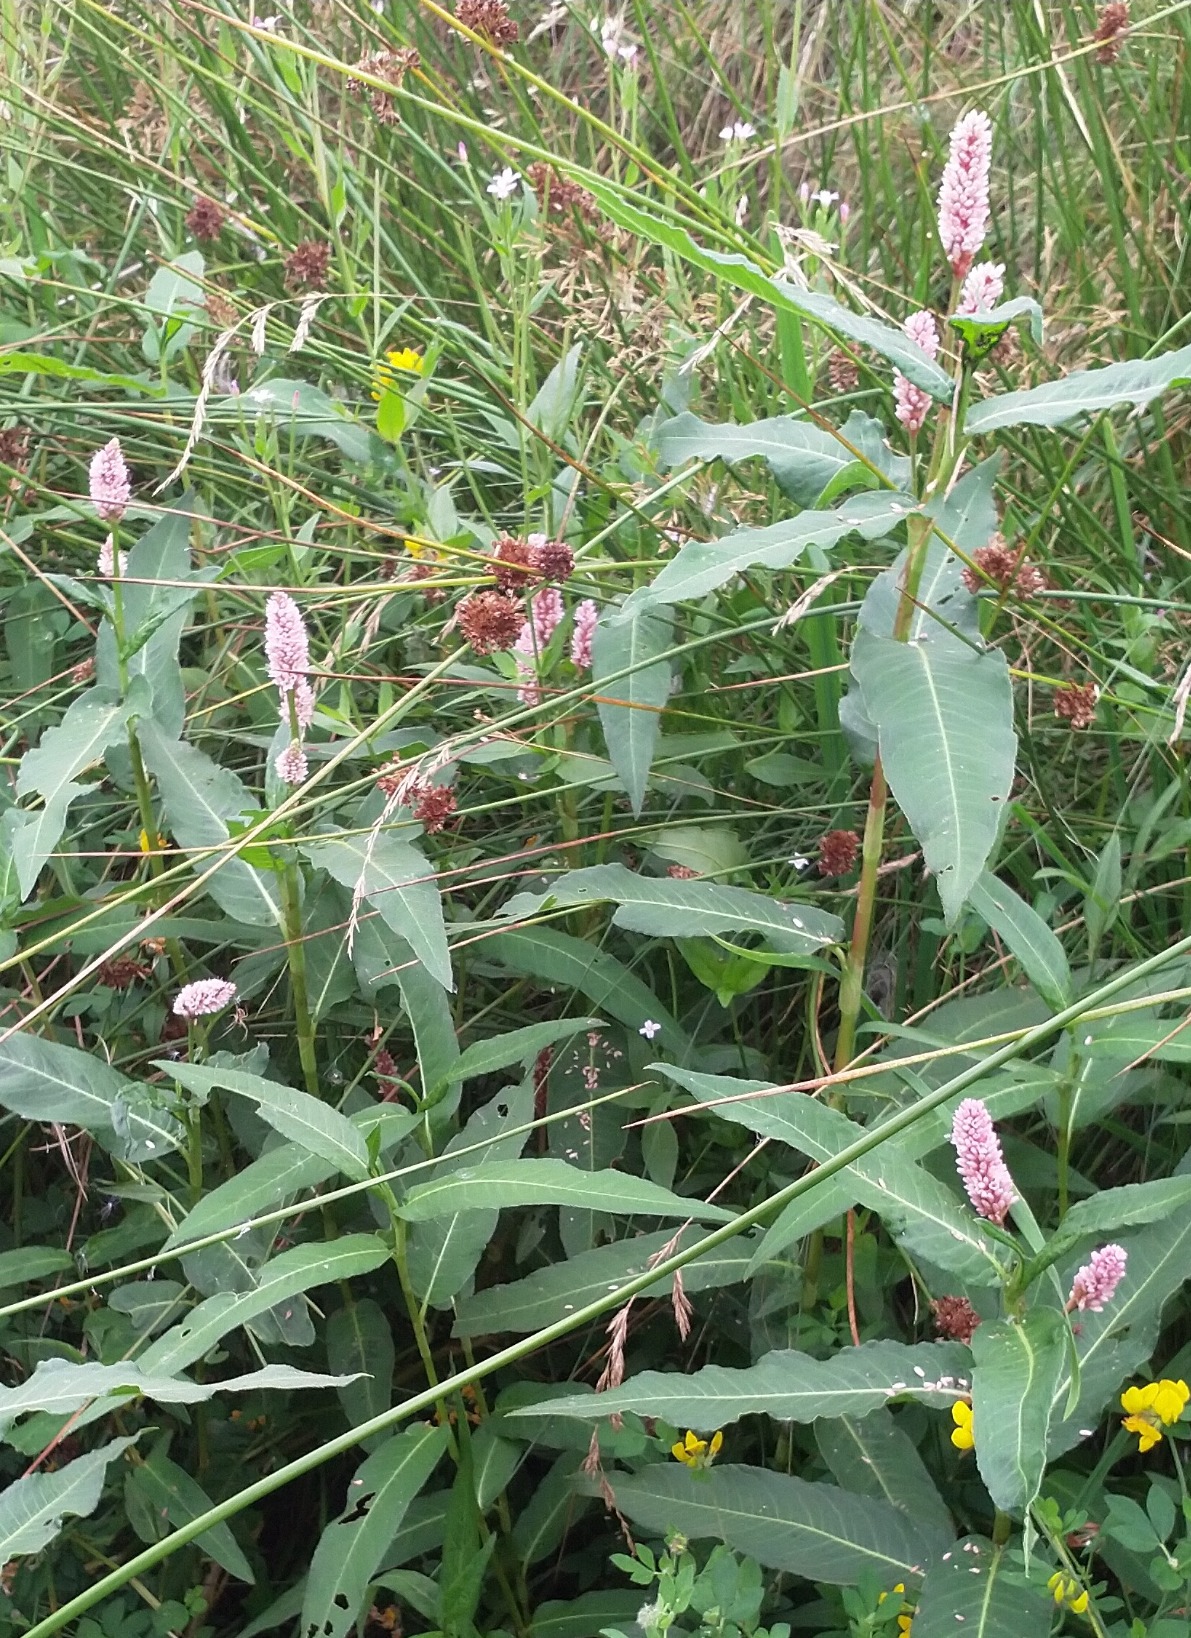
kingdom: Plantae
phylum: Tracheophyta
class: Magnoliopsida
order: Caryophyllales
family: Polygonaceae
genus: Persicaria
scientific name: Persicaria amphibia
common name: Vand-pileurt
